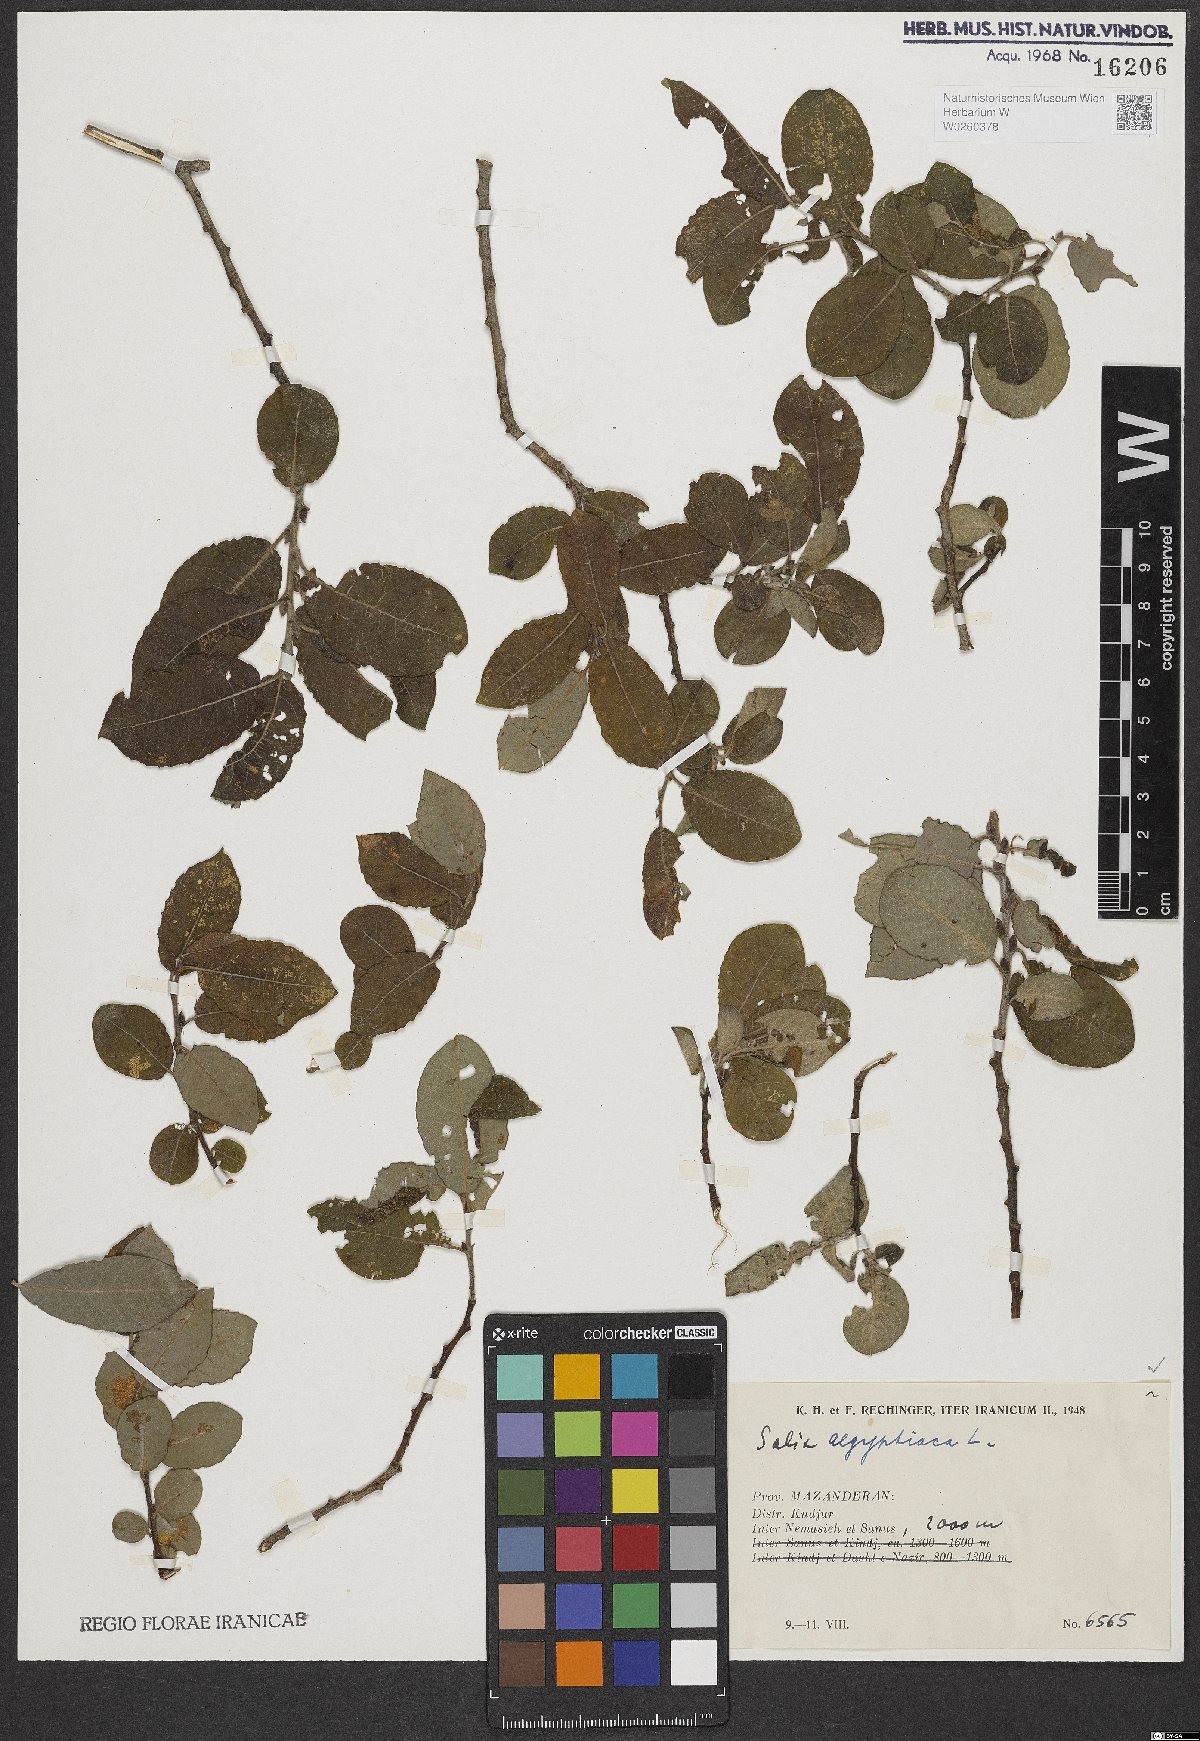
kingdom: Plantae
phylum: Tracheophyta
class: Magnoliopsida
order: Malpighiales
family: Salicaceae
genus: Salix
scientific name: Salix aegyptiaca
